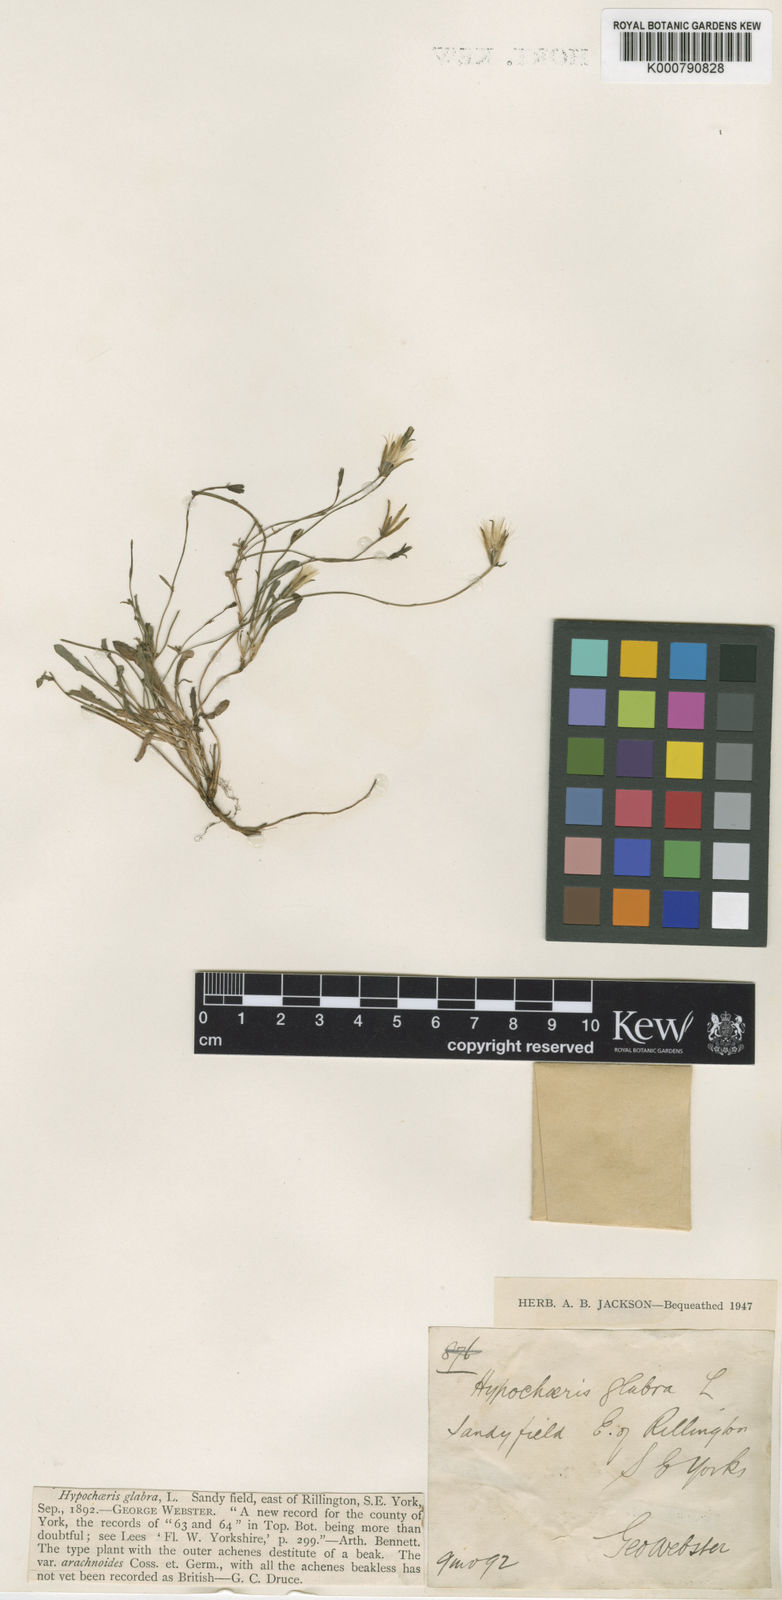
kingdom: Plantae
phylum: Tracheophyta
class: Magnoliopsida
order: Asterales
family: Asteraceae
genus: Hypochaeris
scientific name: Hypochaeris glabra
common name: Smooth catsear
